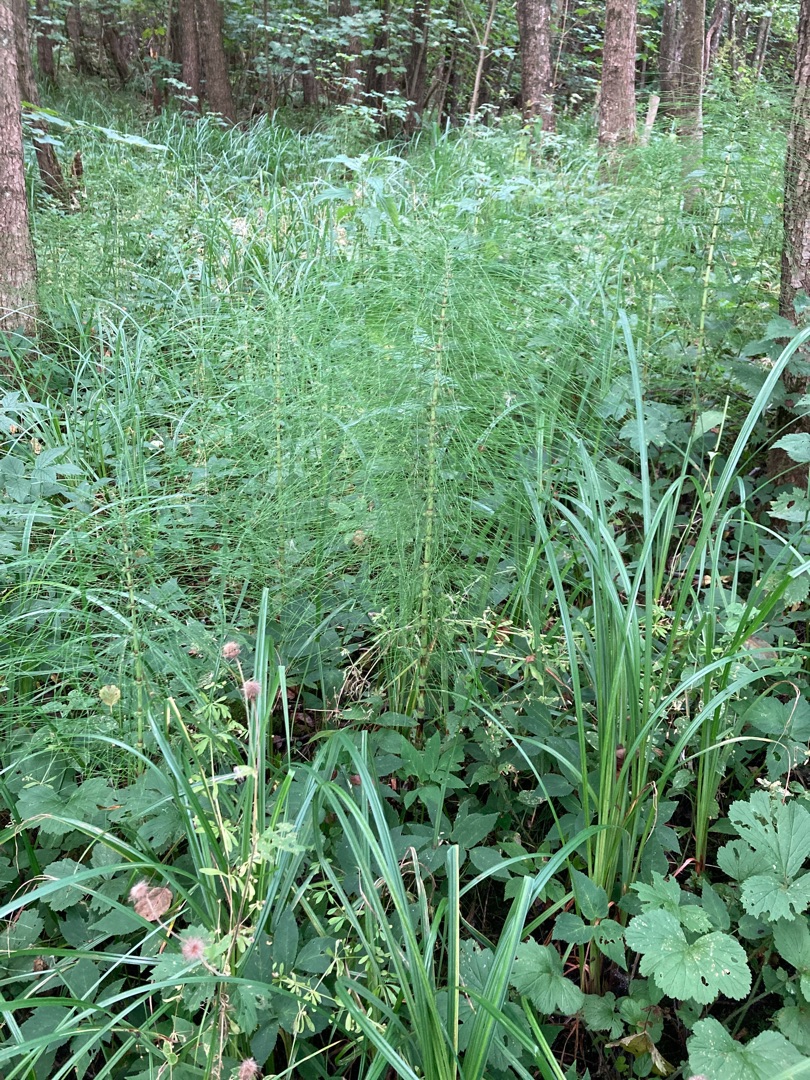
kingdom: Plantae
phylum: Tracheophyta
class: Polypodiopsida
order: Equisetales
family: Equisetaceae
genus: Equisetum
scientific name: Equisetum telmateia
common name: Elfenbens-padderok
